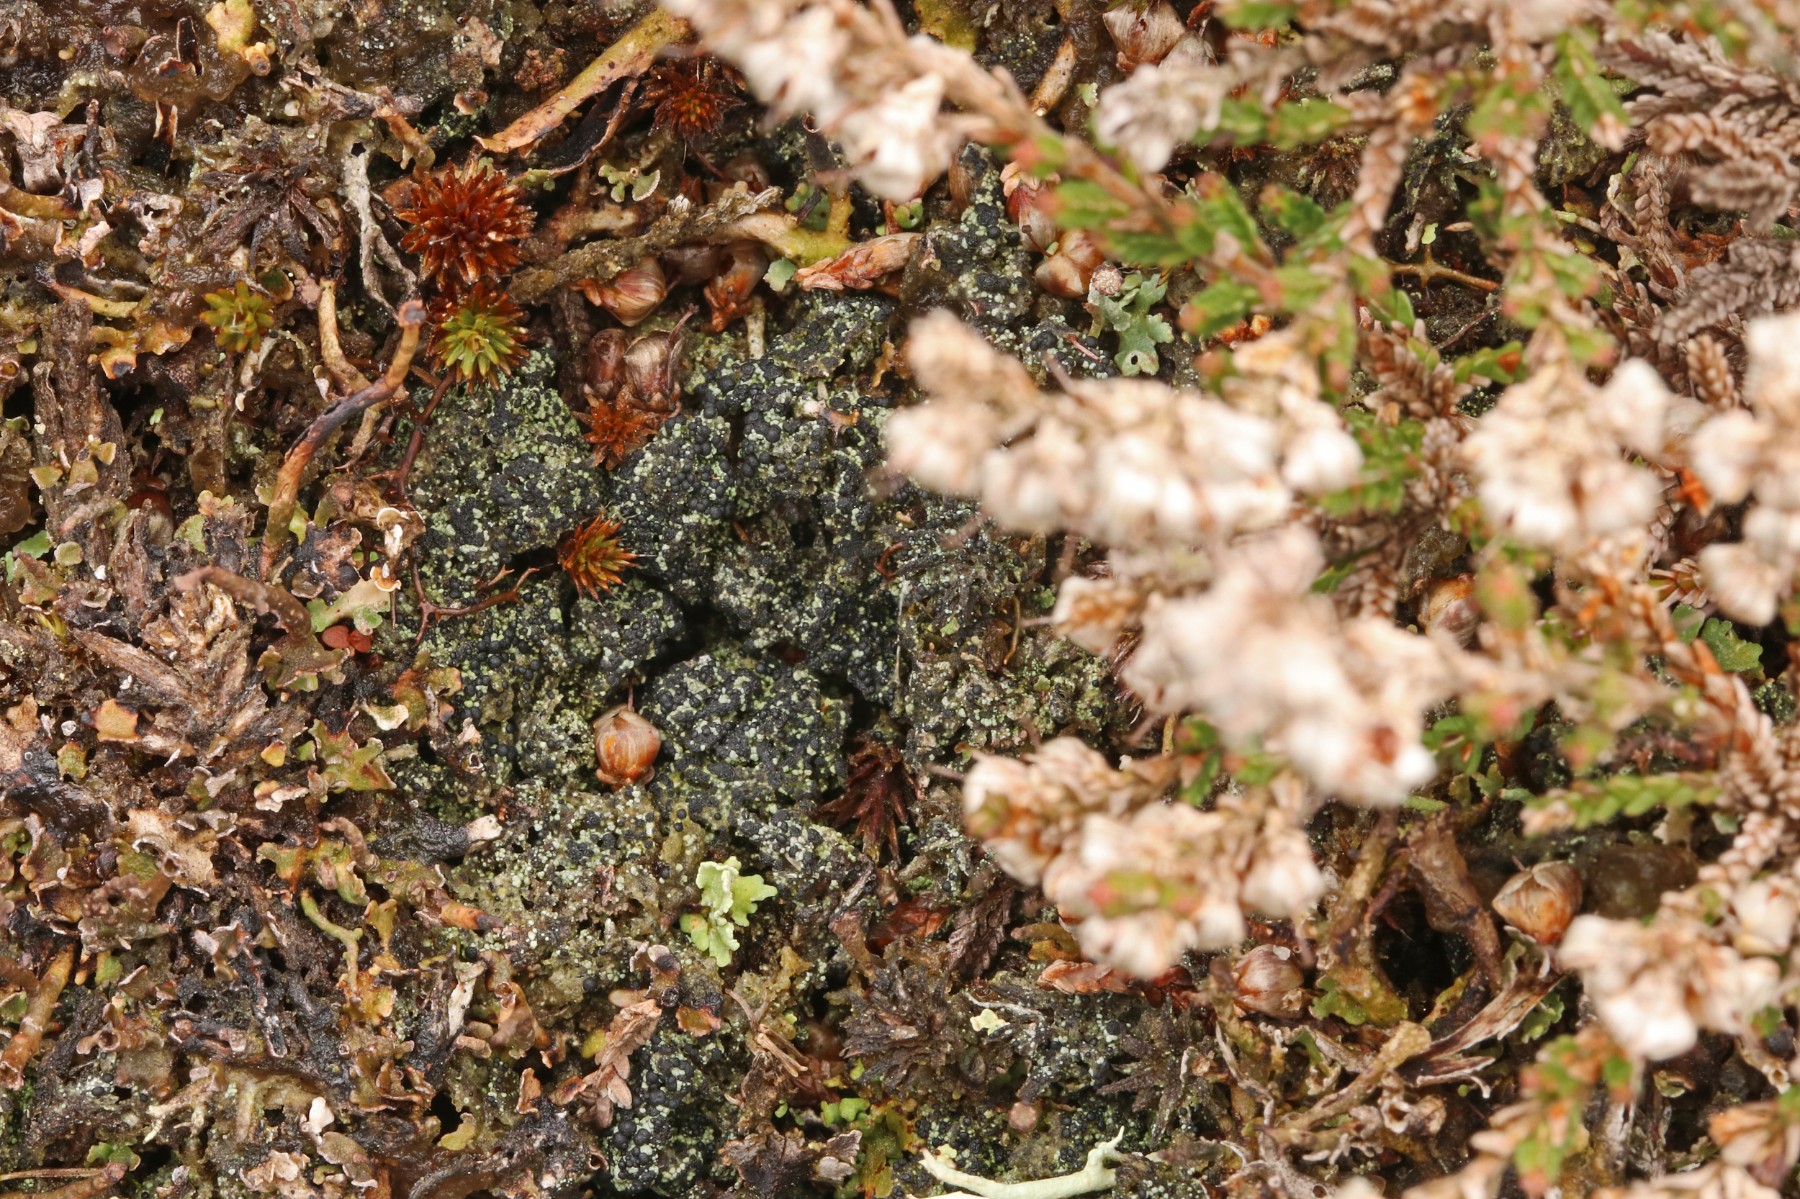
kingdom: Fungi
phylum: Ascomycota
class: Lecanoromycetes
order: Lecanorales
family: Byssolomataceae
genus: Micarea
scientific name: Micarea lignaria
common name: tørve-knaplav
